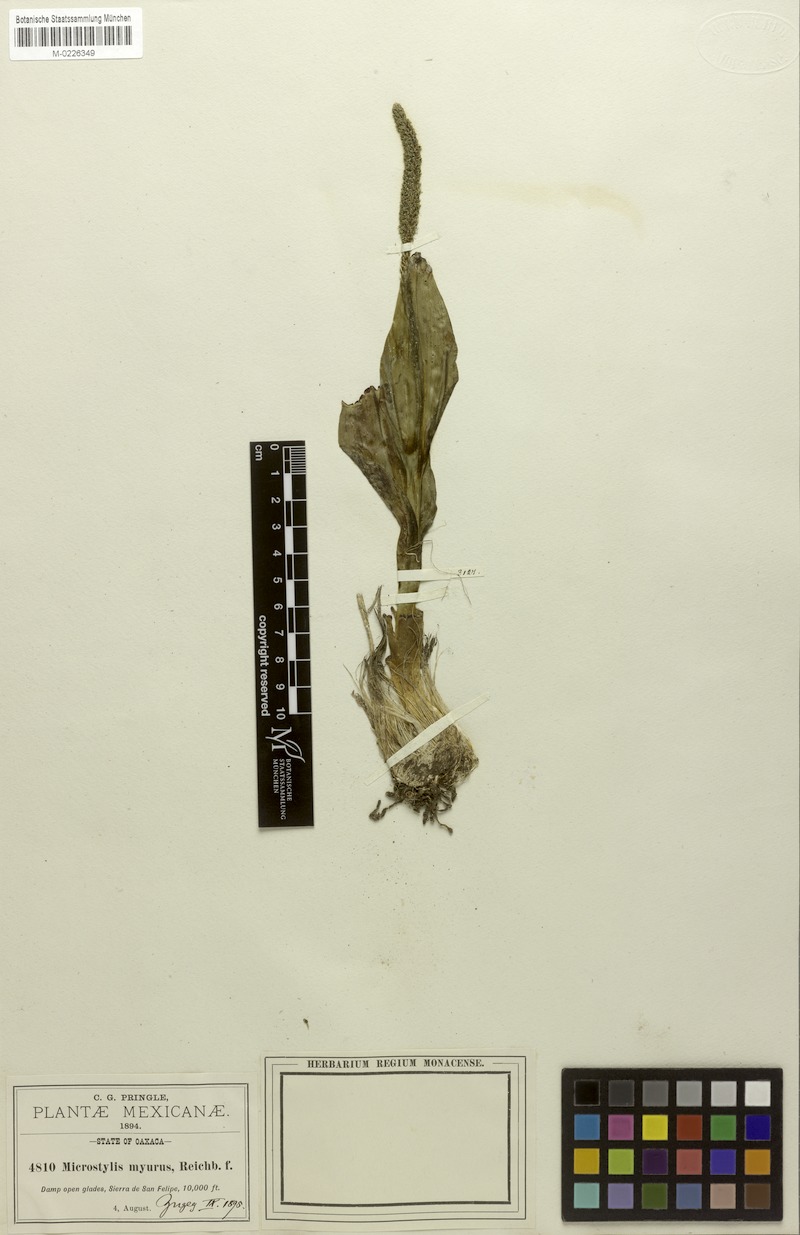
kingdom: Plantae
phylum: Tracheophyta
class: Liliopsida
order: Asparagales
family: Orchidaceae
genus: Malaxis
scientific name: Malaxis myurus
